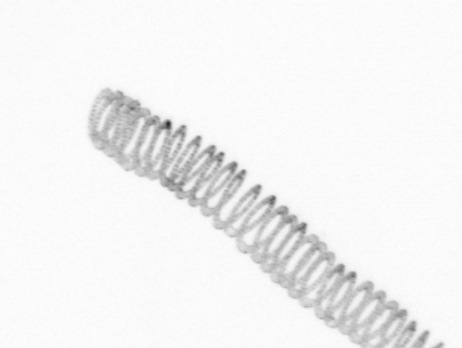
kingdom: Chromista
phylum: Ochrophyta
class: Bacillariophyceae
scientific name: Bacillariophyceae
